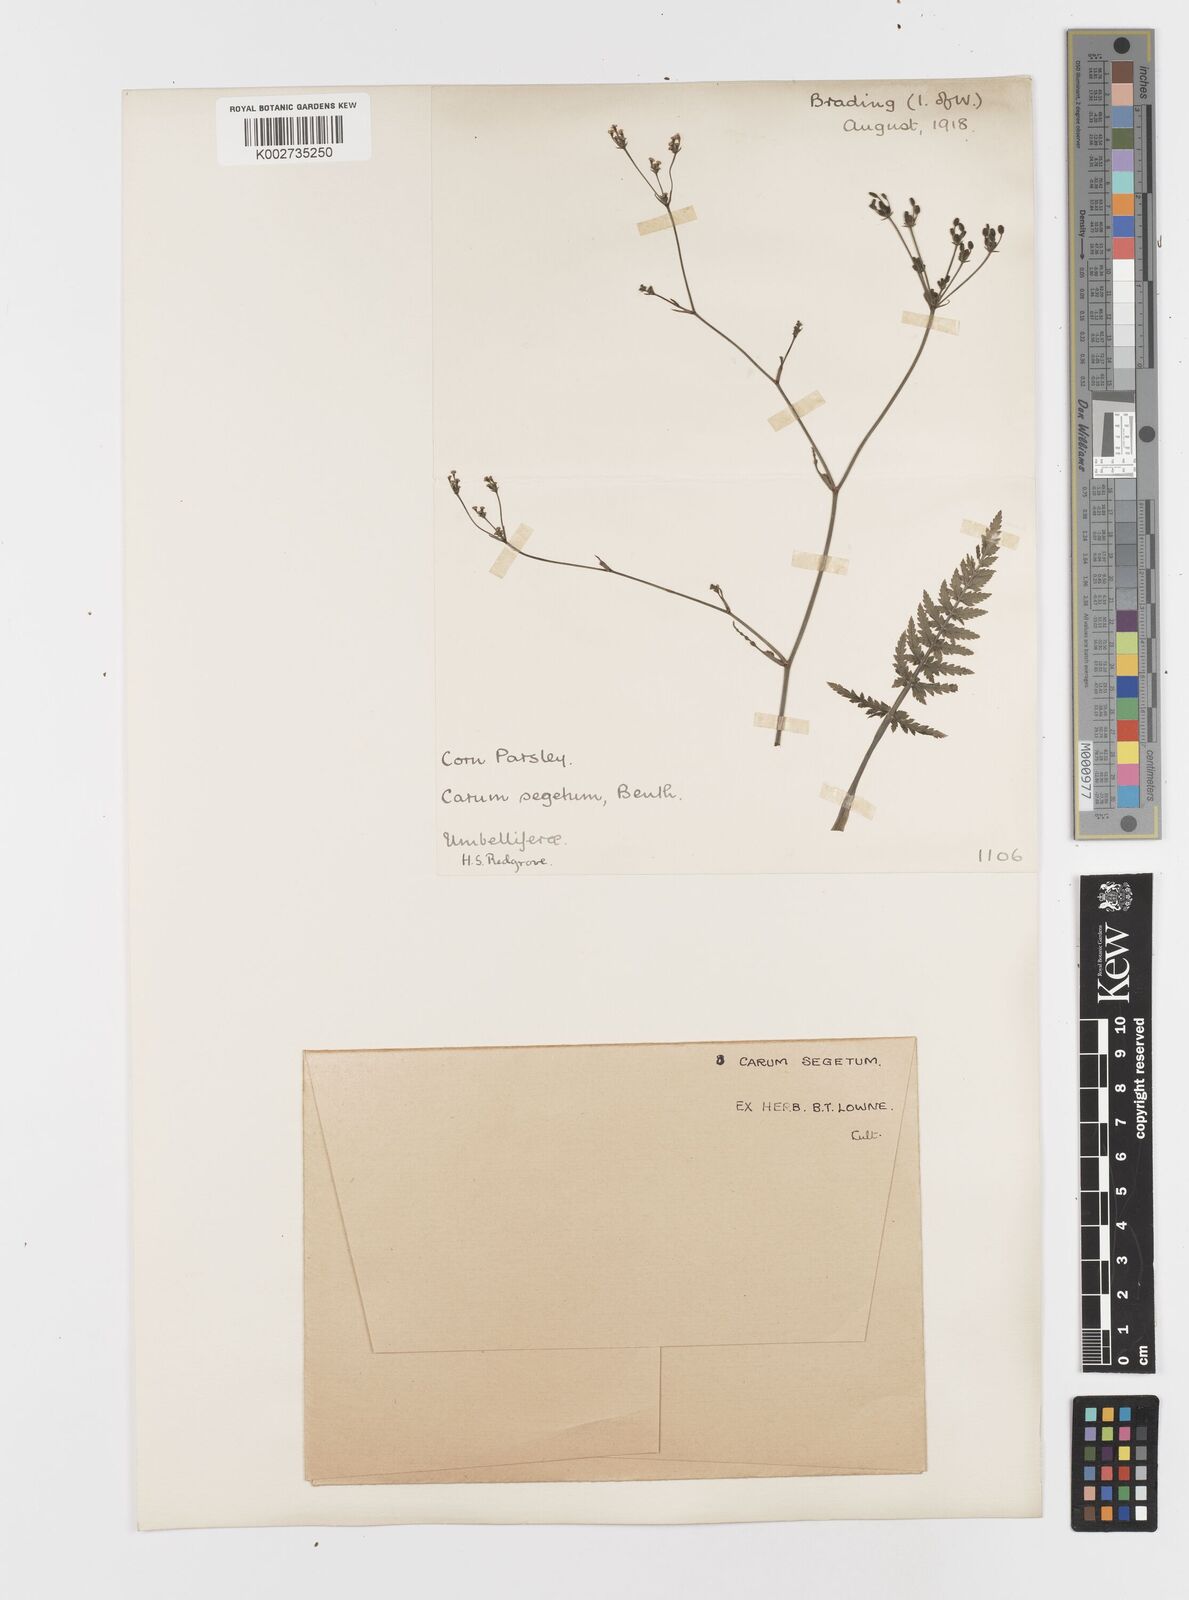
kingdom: Plantae
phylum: Tracheophyta
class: Magnoliopsida
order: Apiales
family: Apiaceae
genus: Petroselinum
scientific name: Petroselinum
